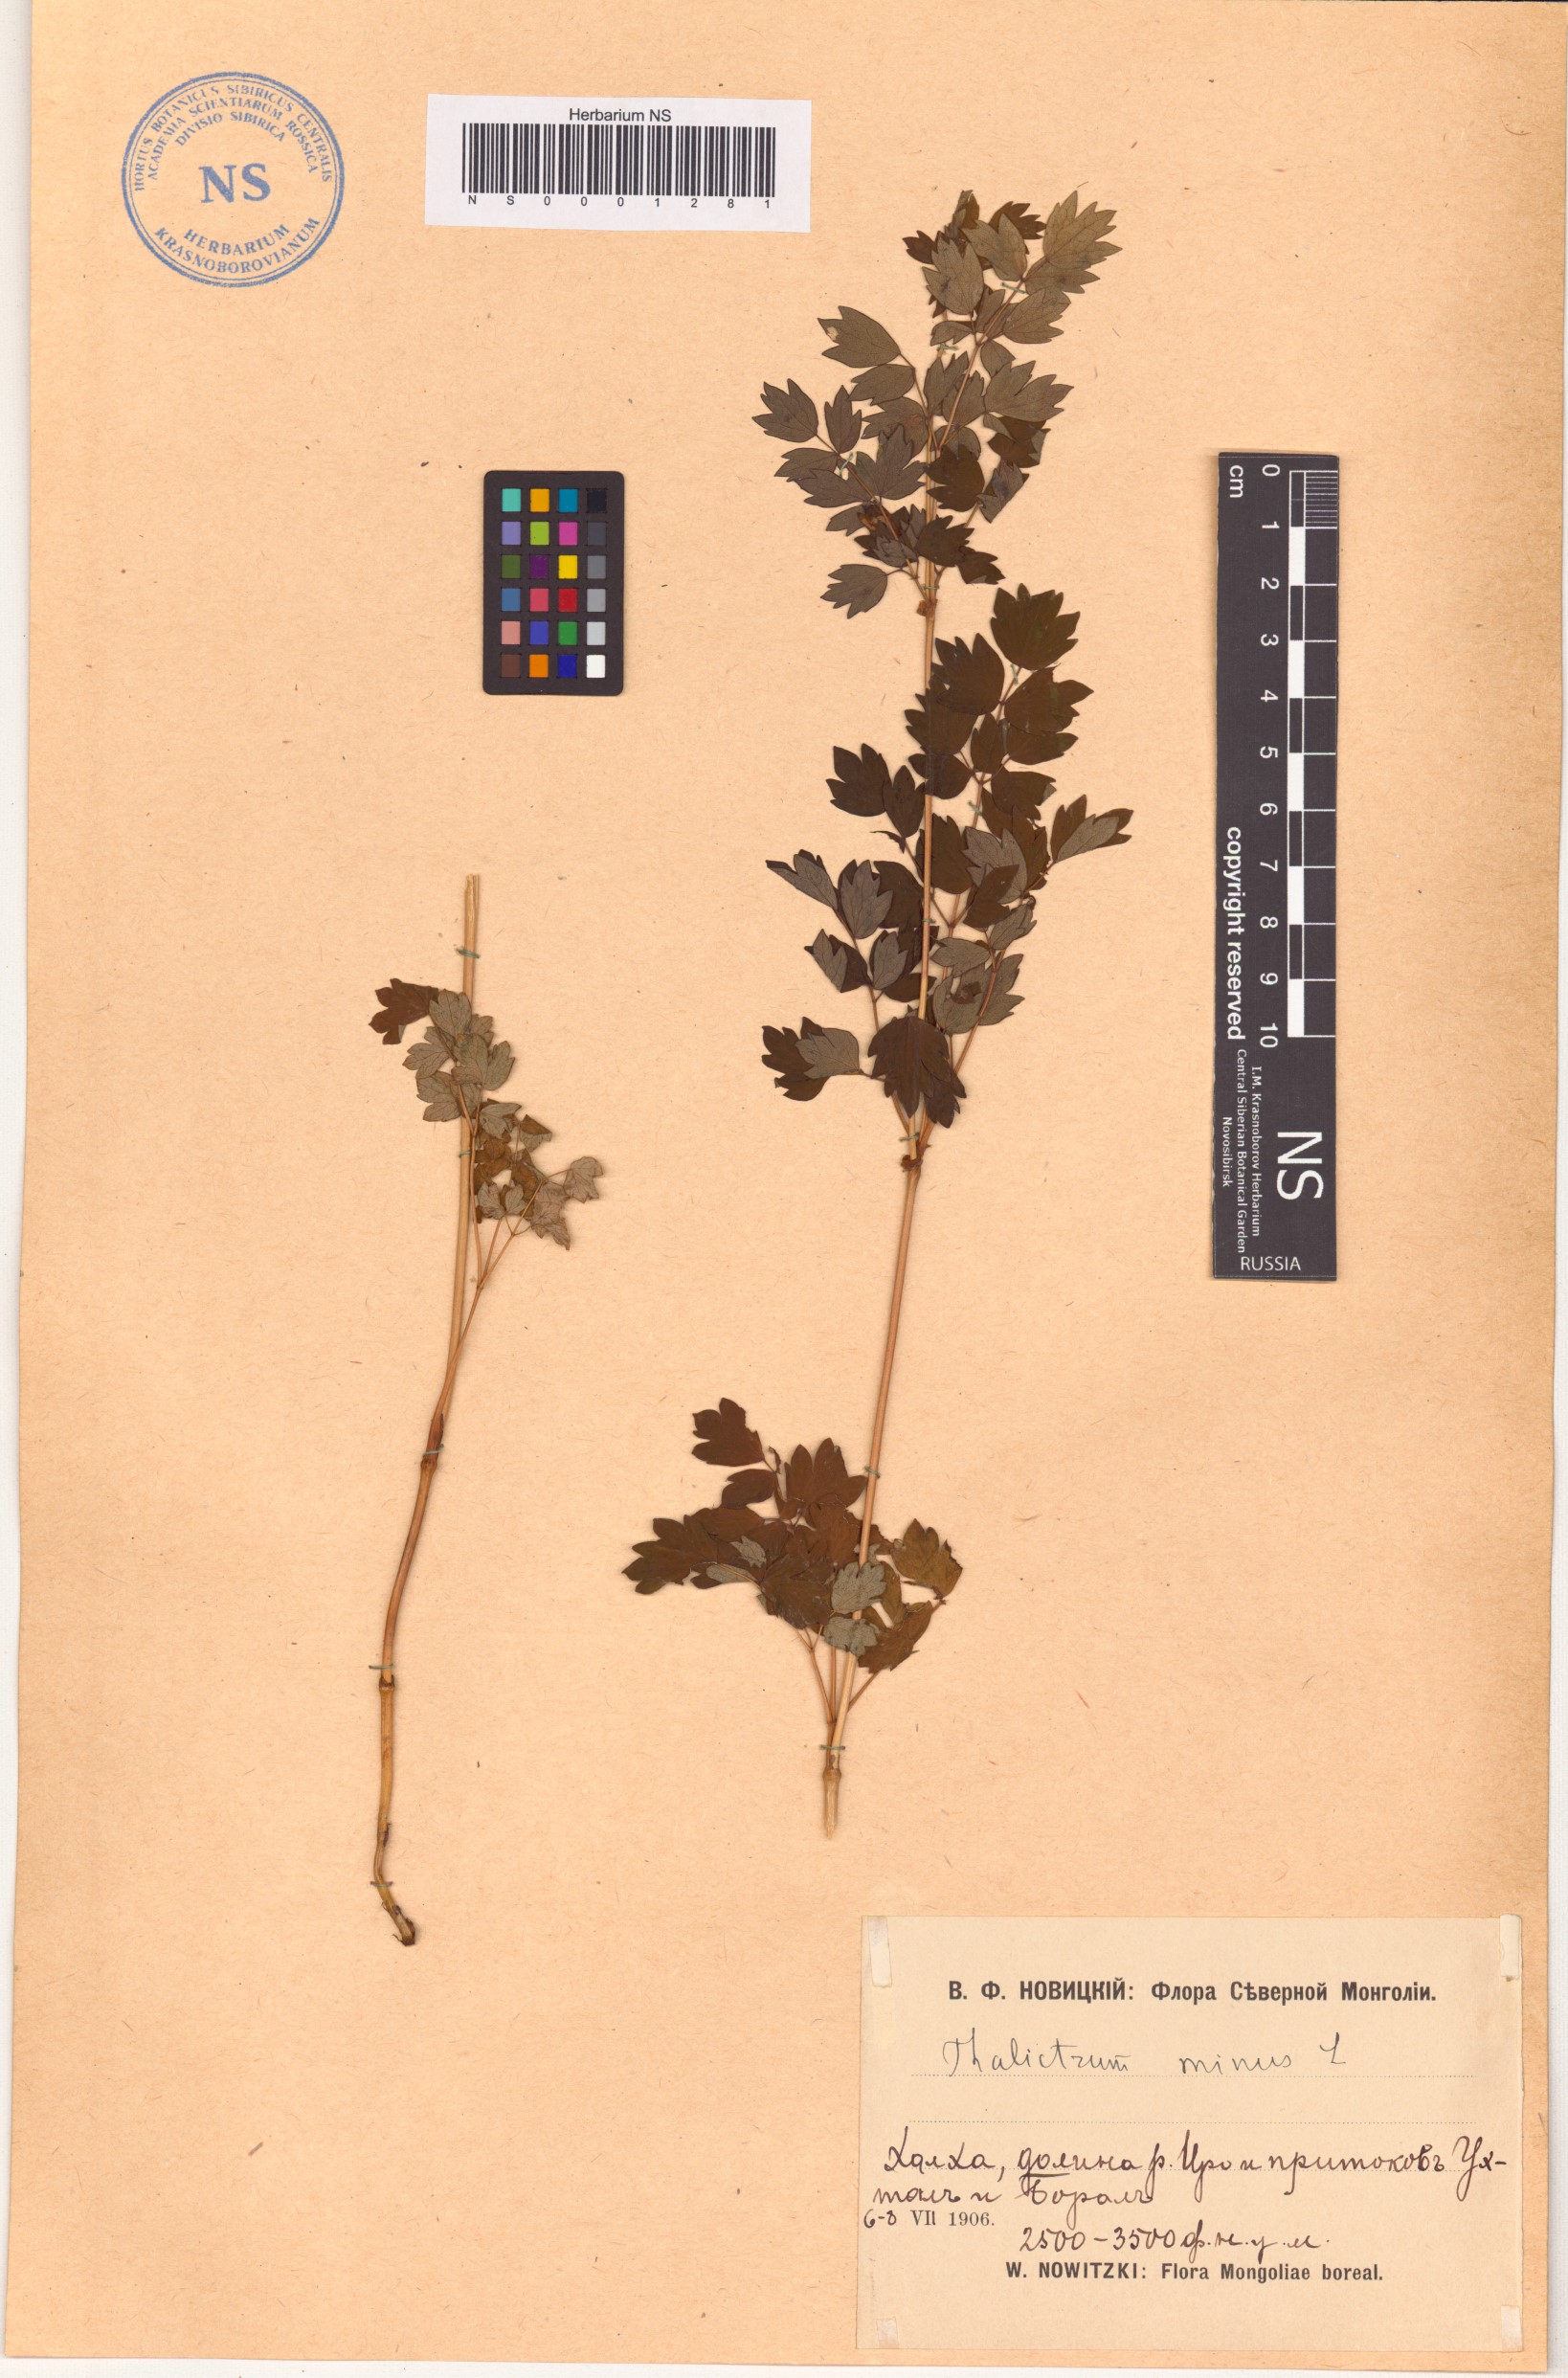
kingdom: Plantae
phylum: Tracheophyta
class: Magnoliopsida
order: Ranunculales
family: Ranunculaceae
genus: Thalictrum
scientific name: Thalictrum minus
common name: Lesser meadow-rue
